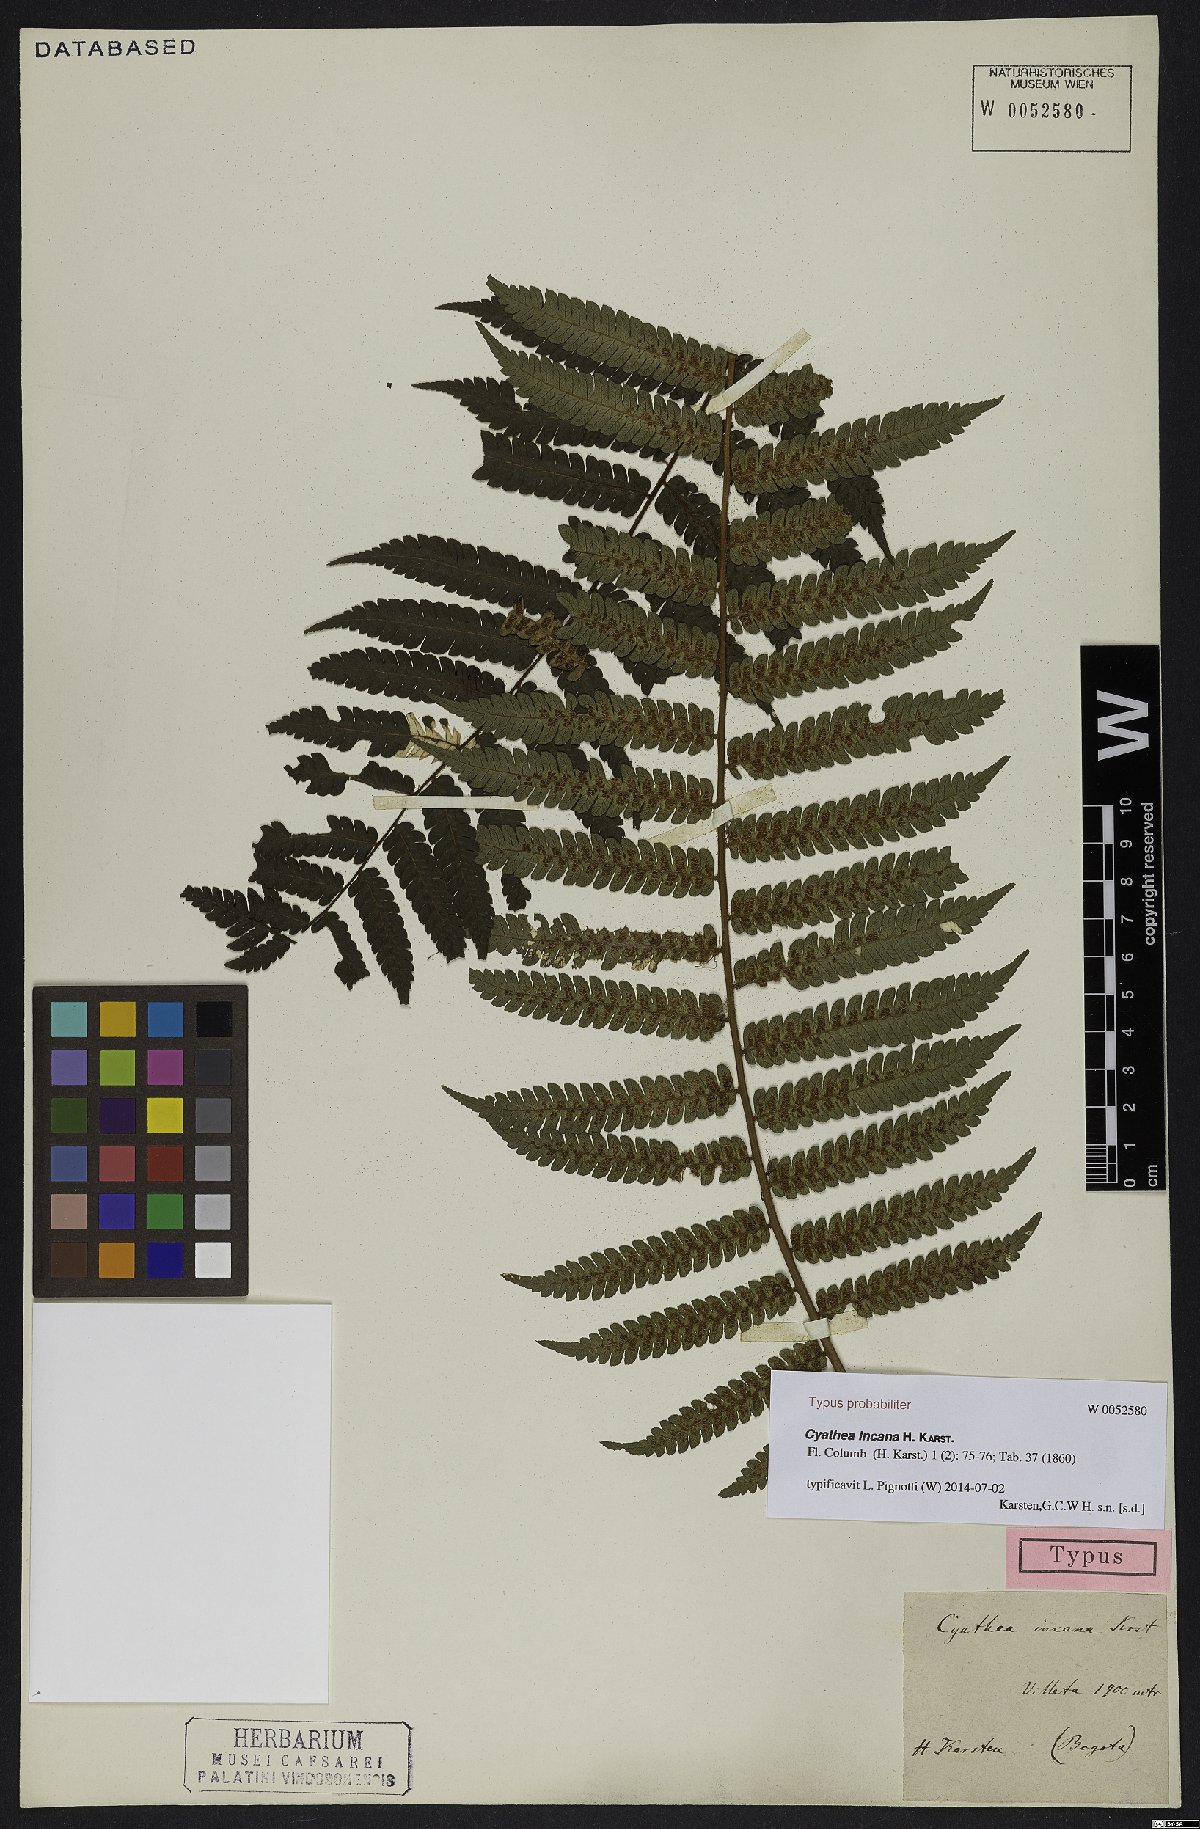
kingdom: Plantae
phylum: Tracheophyta
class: Polypodiopsida
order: Cyatheales
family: Cyatheaceae
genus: Alsophila
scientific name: Alsophila incana
